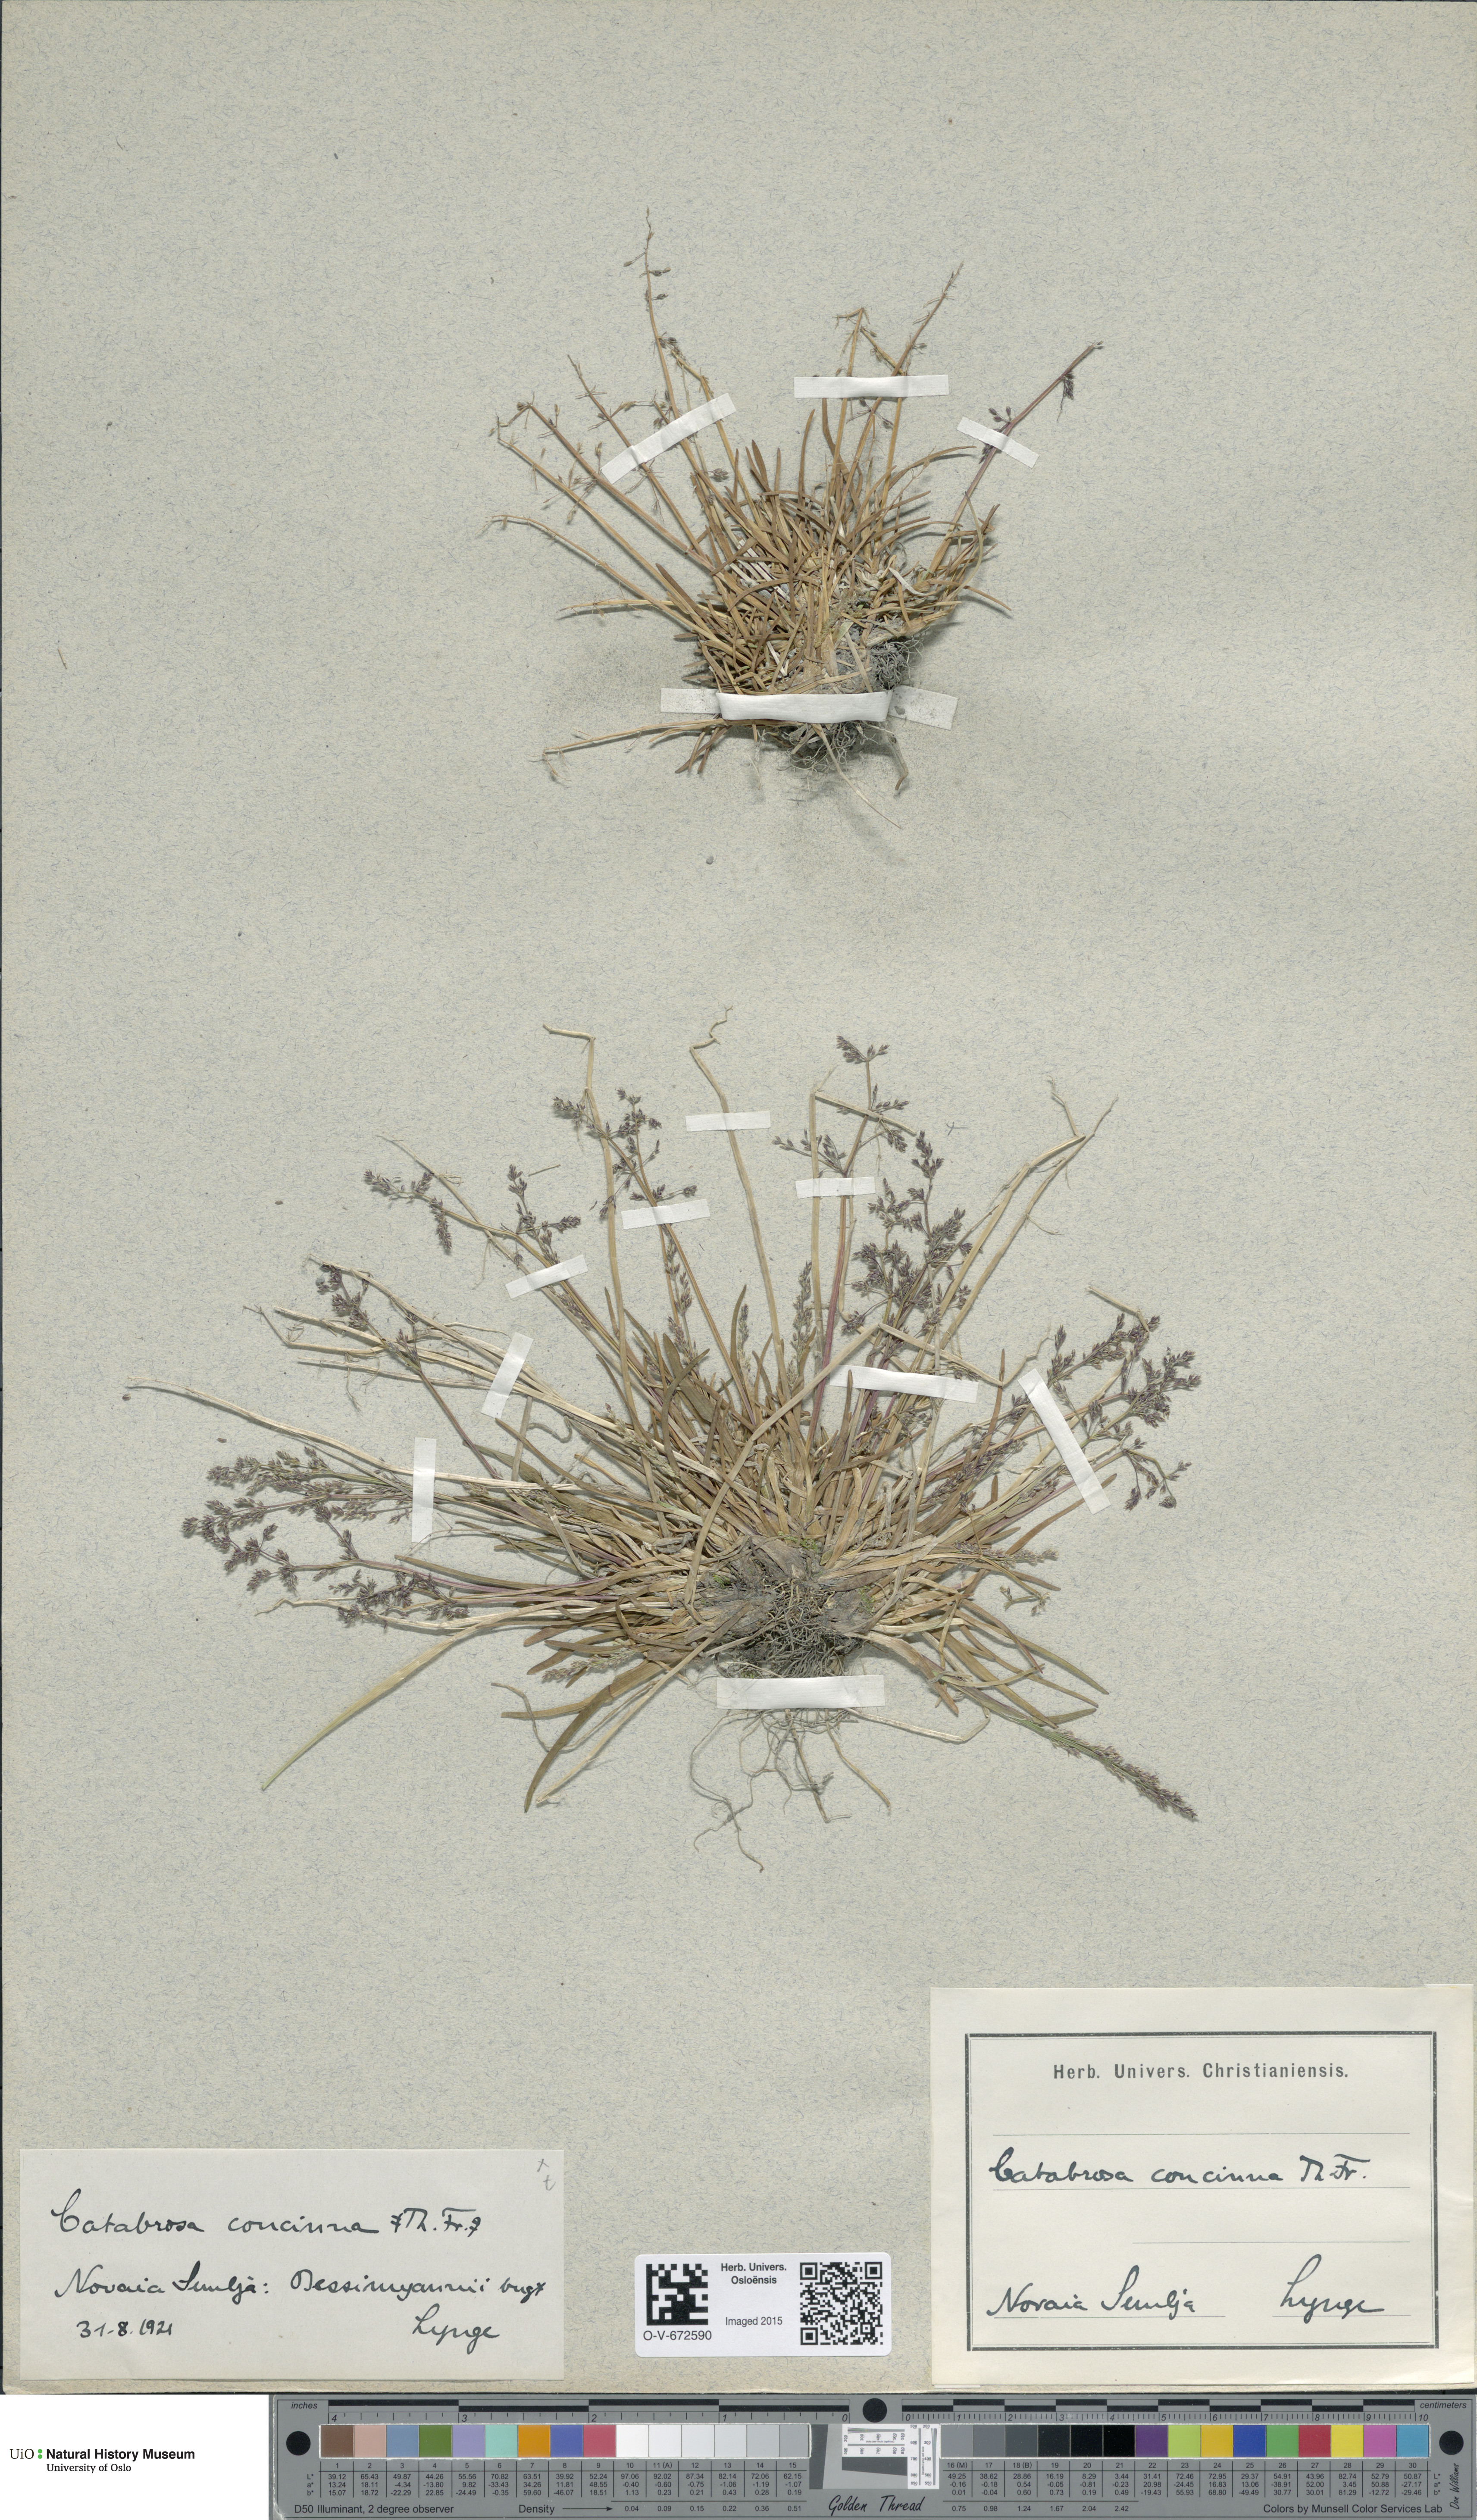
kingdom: Plantae
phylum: Tracheophyta
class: Liliopsida
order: Poales
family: Poaceae
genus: Phippsia
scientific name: Phippsia concinna
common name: Snowgrass
